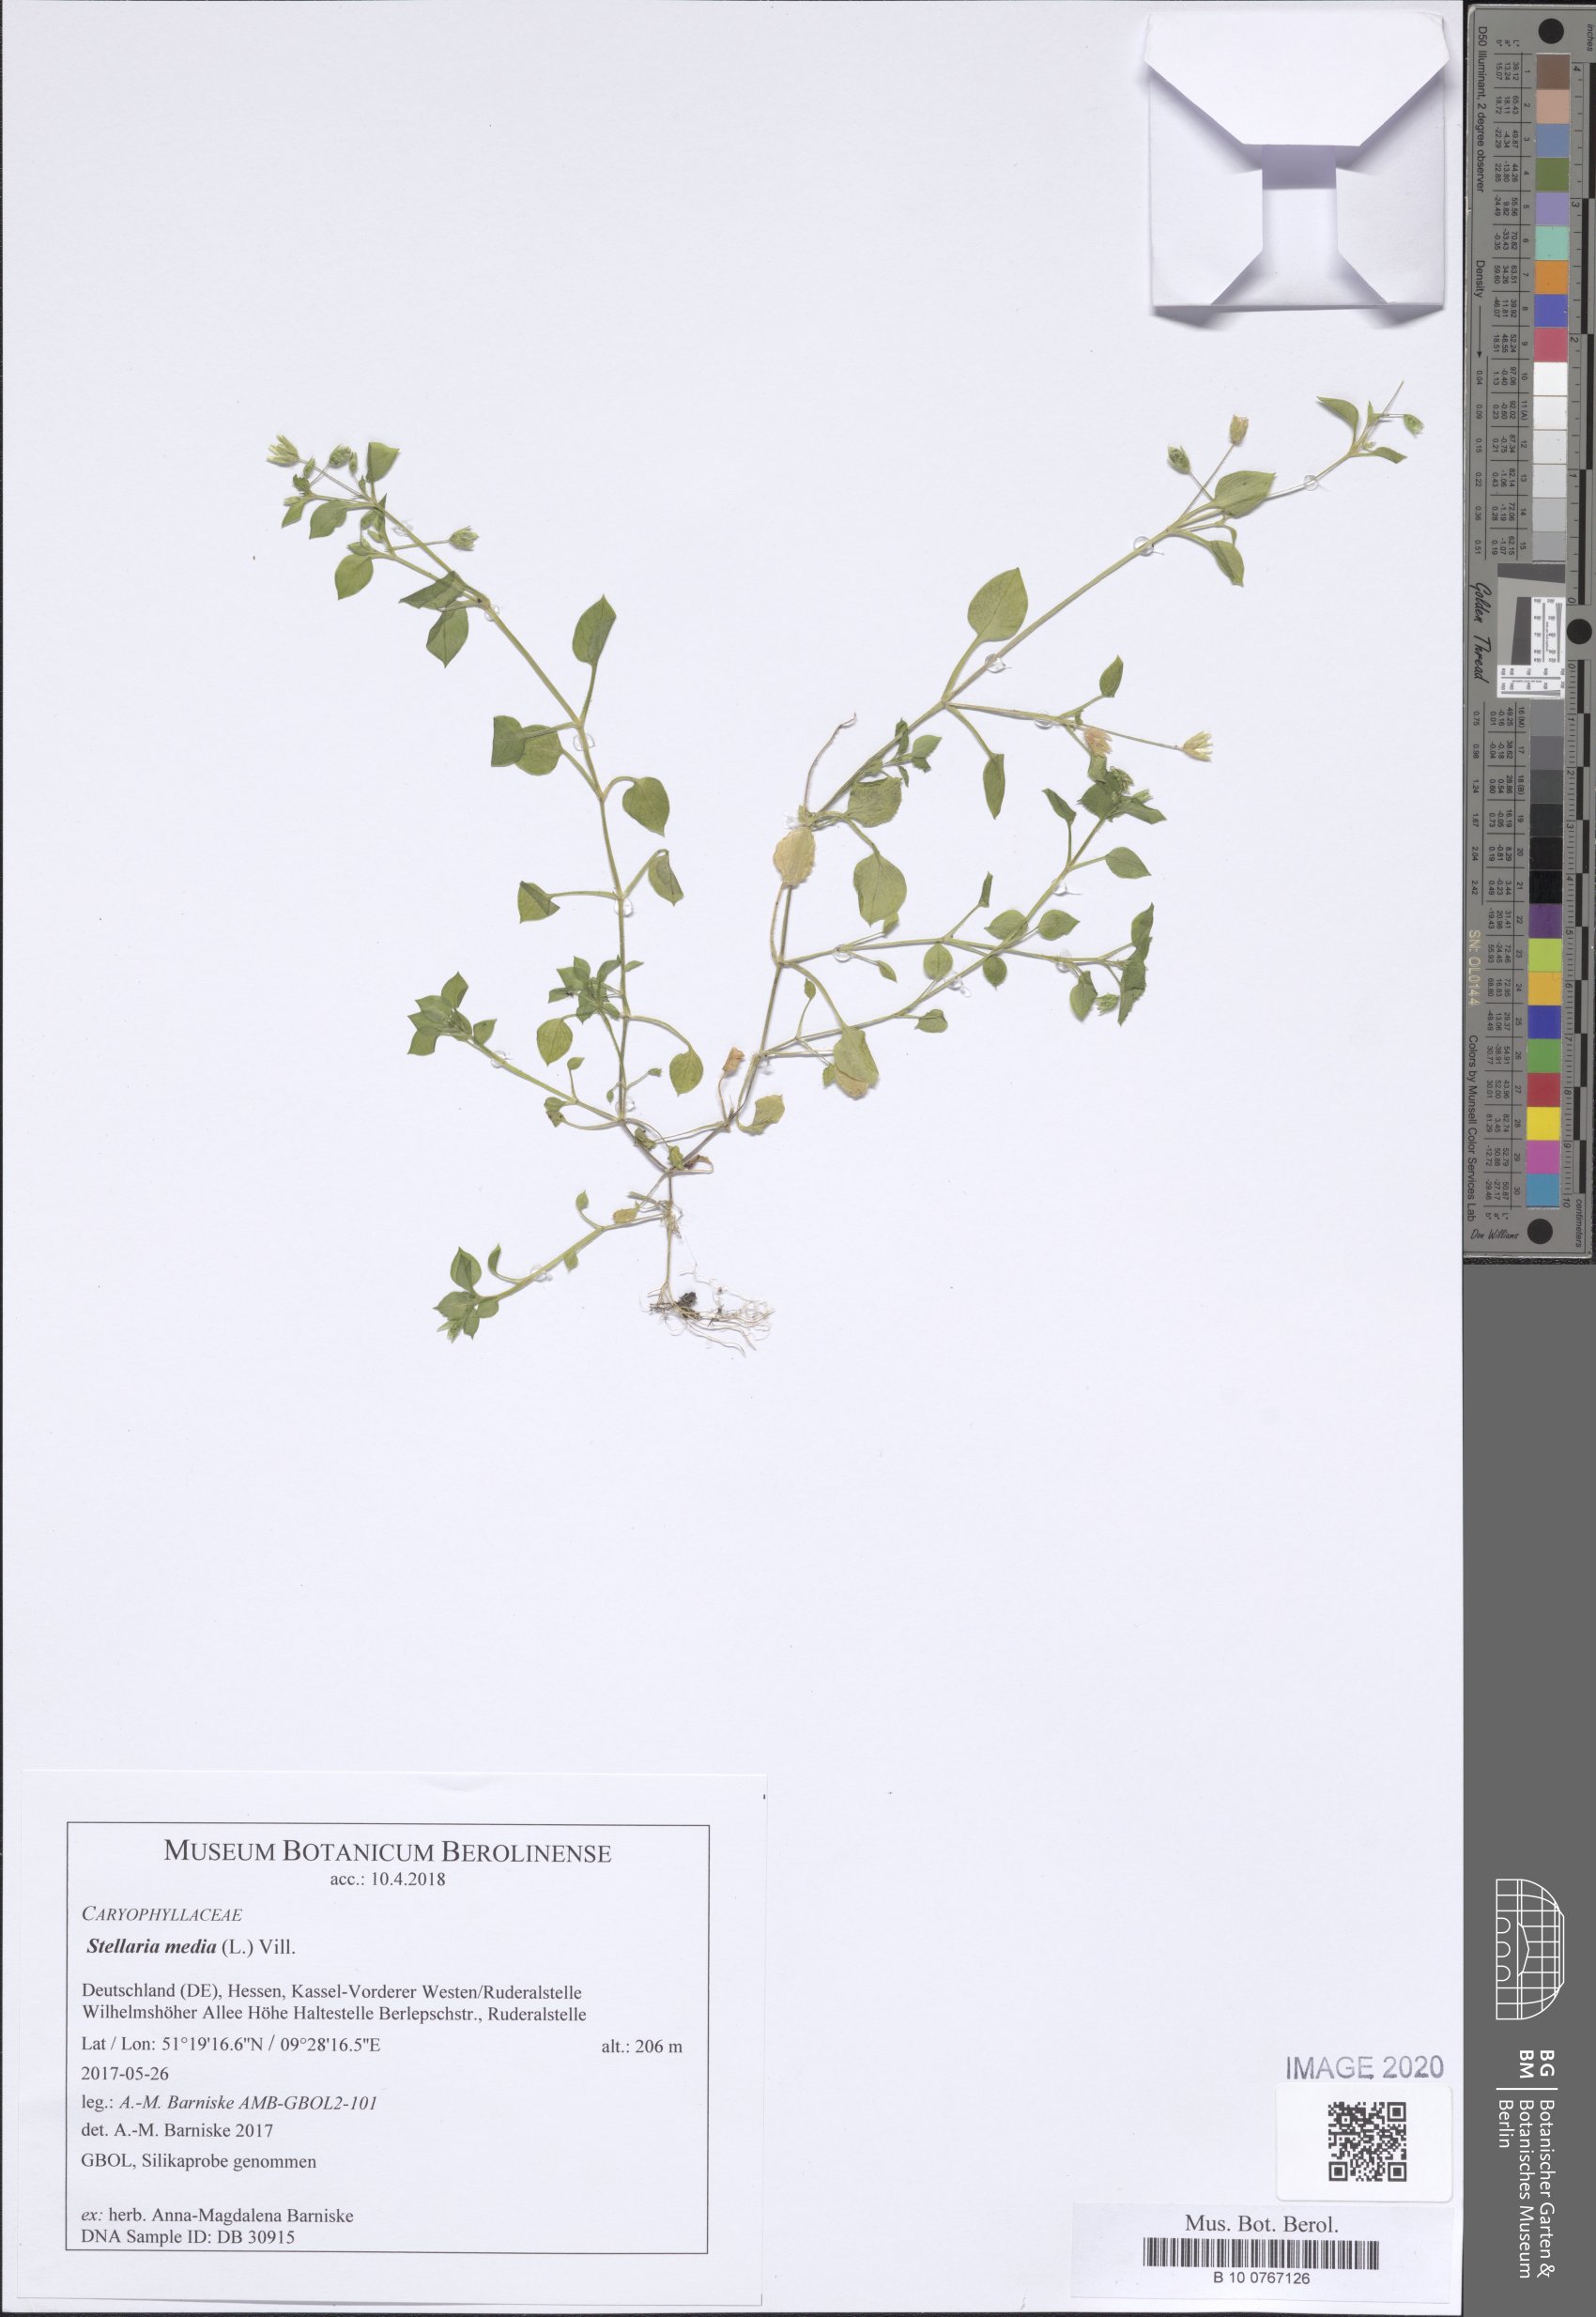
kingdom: Plantae
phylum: Tracheophyta
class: Magnoliopsida
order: Caryophyllales
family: Caryophyllaceae
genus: Stellaria
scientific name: Stellaria media
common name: Common chickweed
